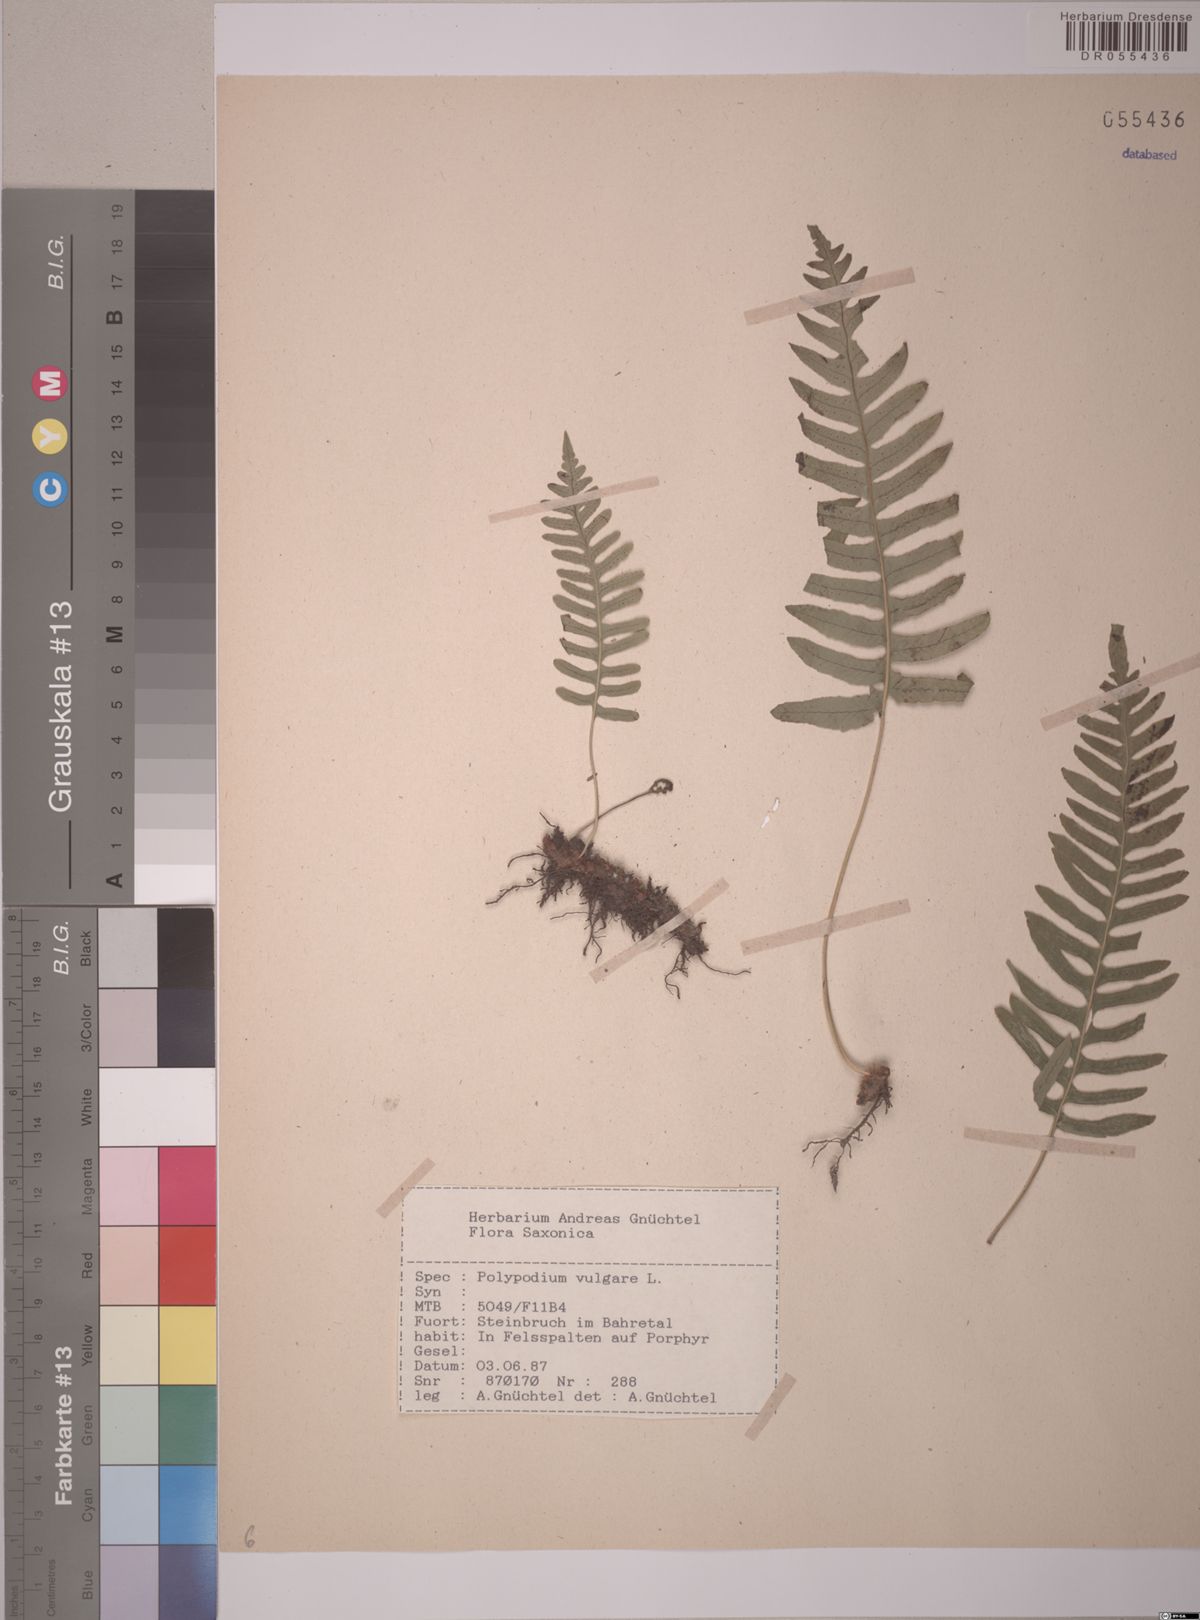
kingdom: Plantae
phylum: Tracheophyta
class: Polypodiopsida
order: Polypodiales
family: Polypodiaceae
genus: Polypodium
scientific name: Polypodium vulgare
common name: Common polypody
